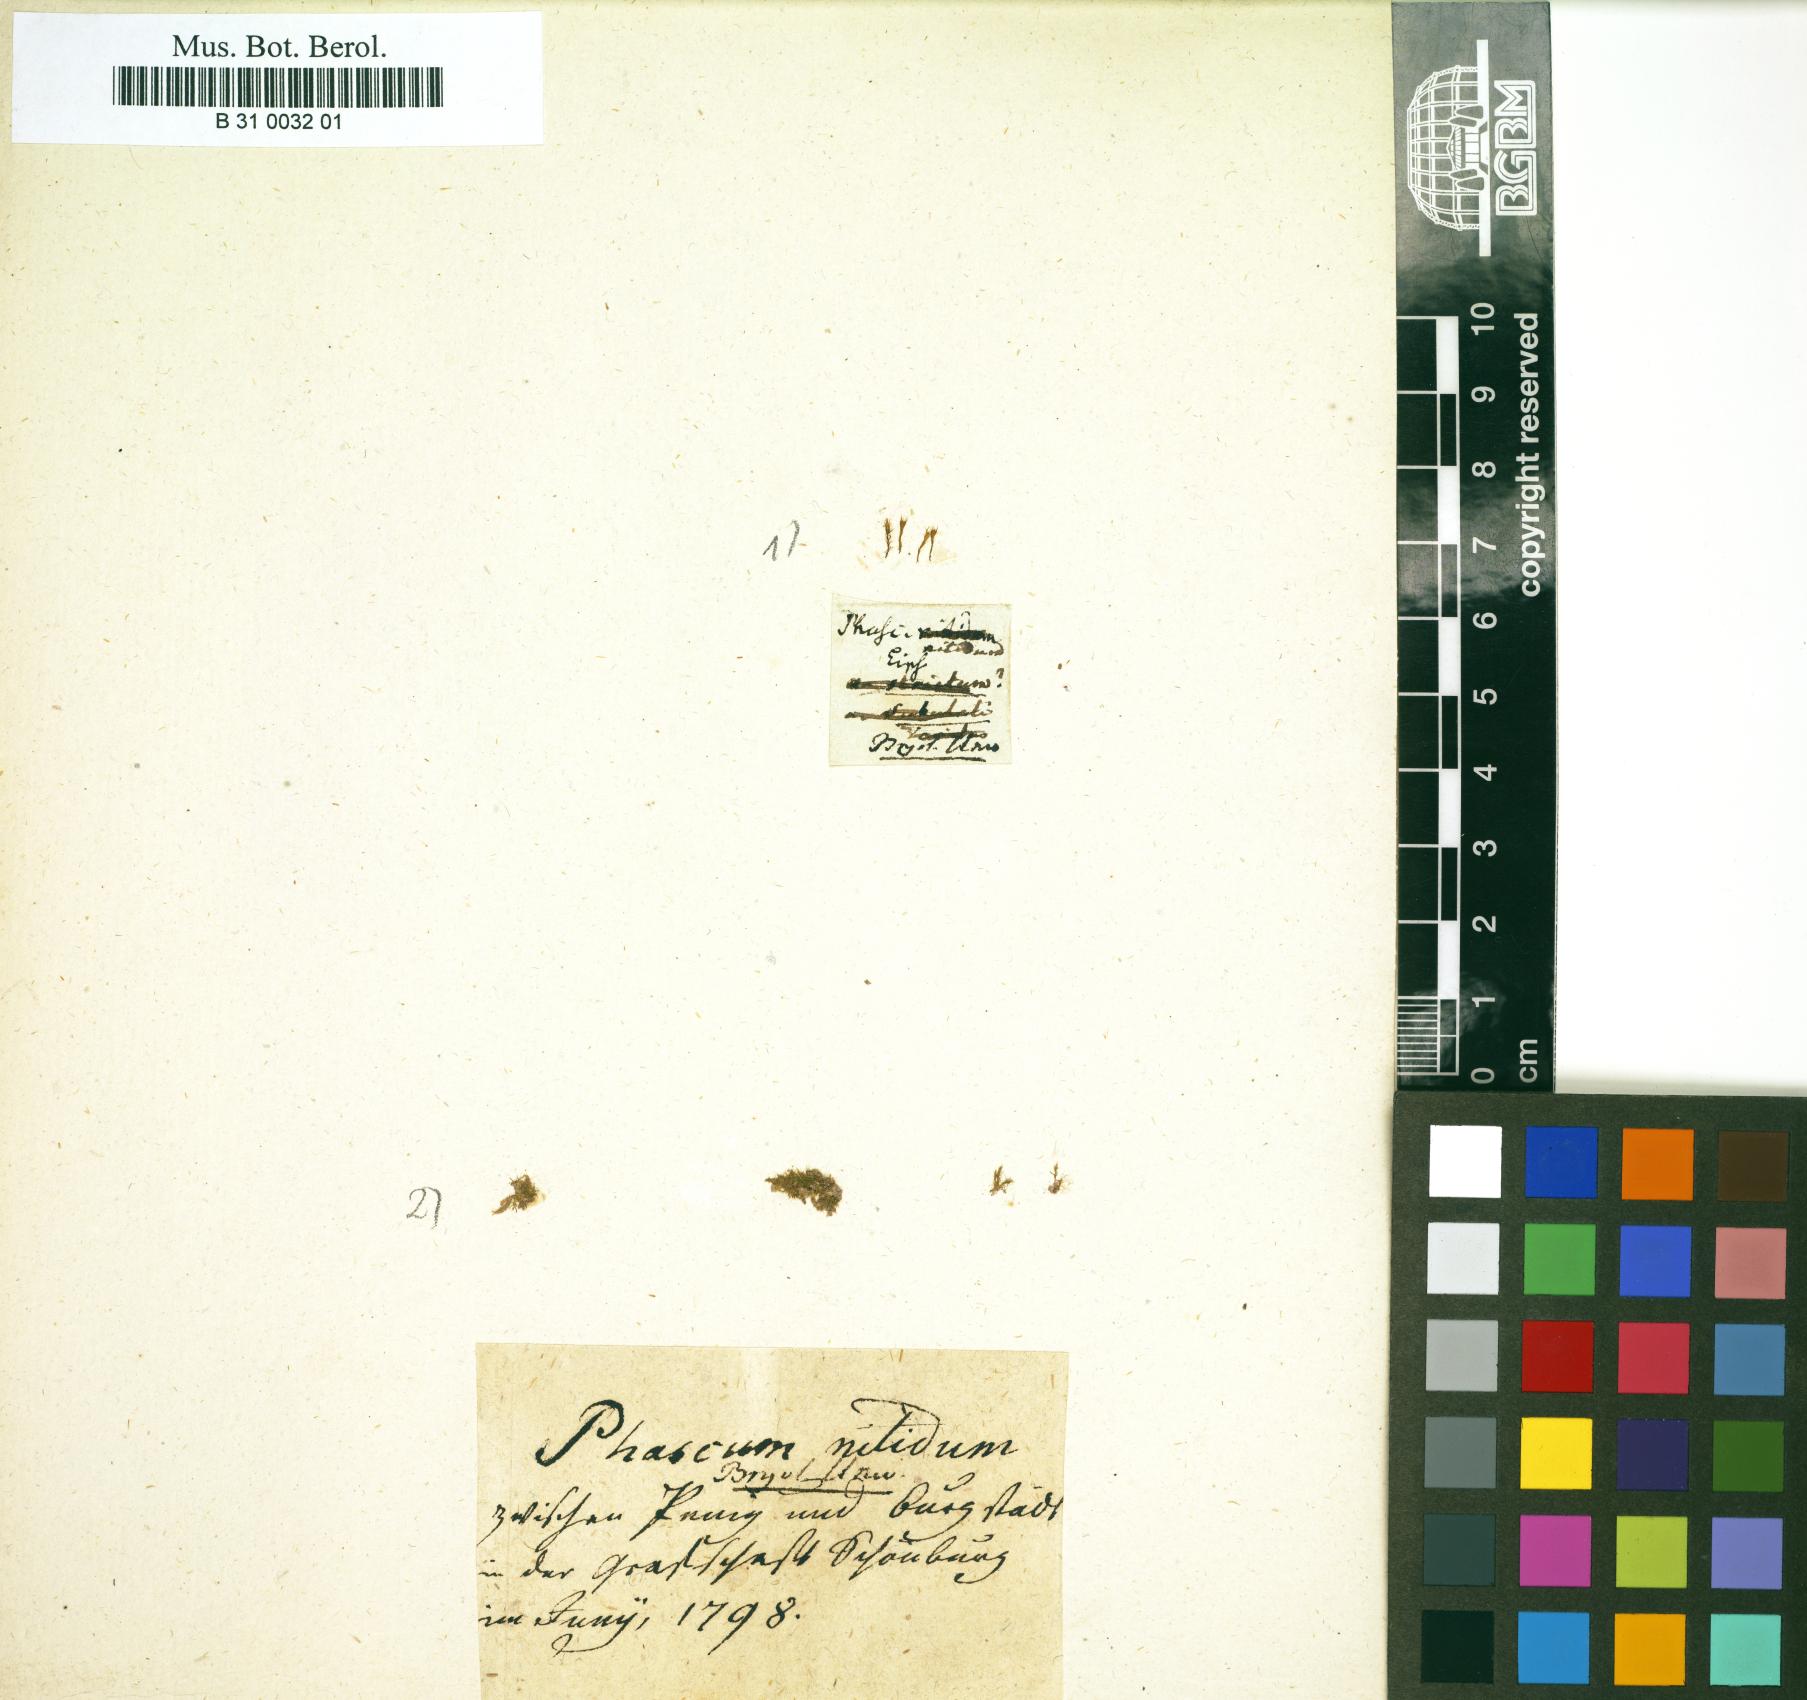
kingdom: Plantae
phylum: Bryophyta
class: Bryopsida
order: Dicranales
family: Ditrichaceae
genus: Pseudephemerum
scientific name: Pseudephemerum nitidum
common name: Delicate earth-moss
